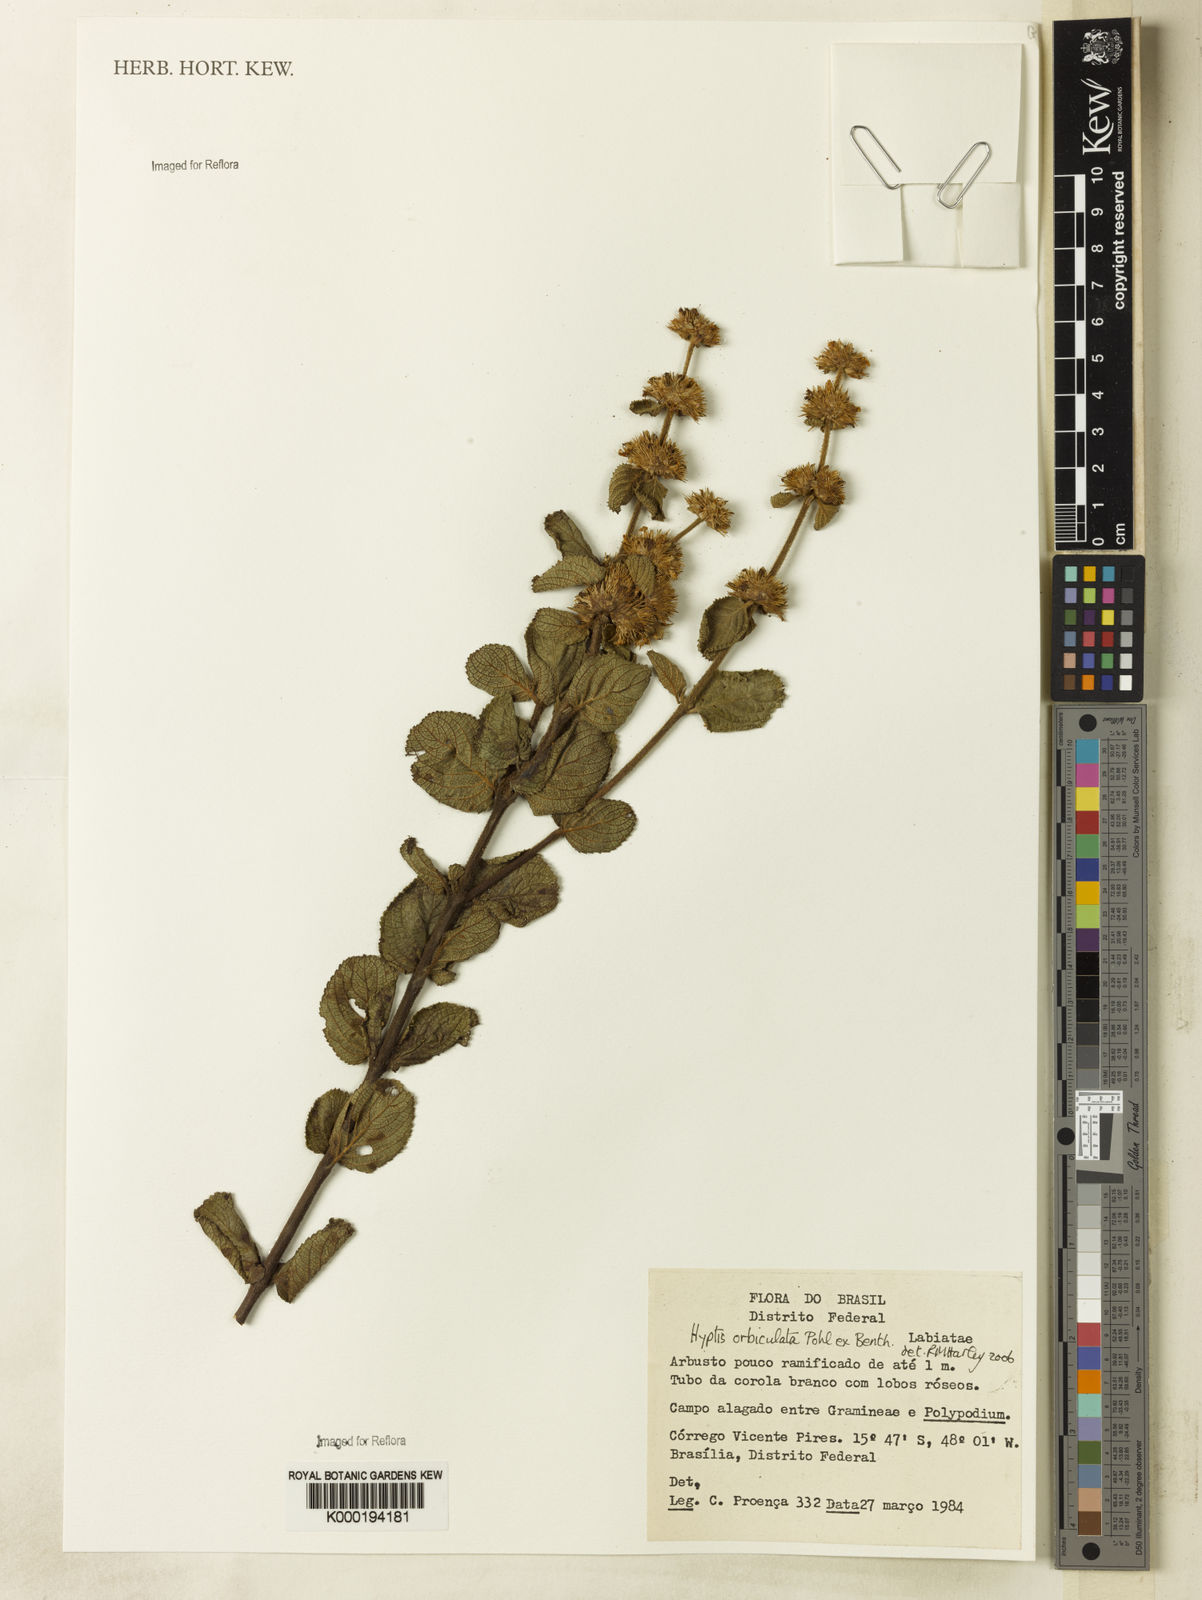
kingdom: Plantae
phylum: Tracheophyta
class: Magnoliopsida
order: Lamiales
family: Lamiaceae
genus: Hyptis
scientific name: Hyptis orbiculata
